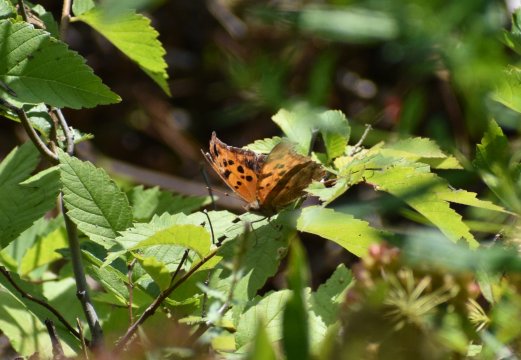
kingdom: Animalia
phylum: Arthropoda
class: Insecta
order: Lepidoptera
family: Nymphalidae
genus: Polygonia
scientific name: Polygonia interrogationis
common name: Question Mark
